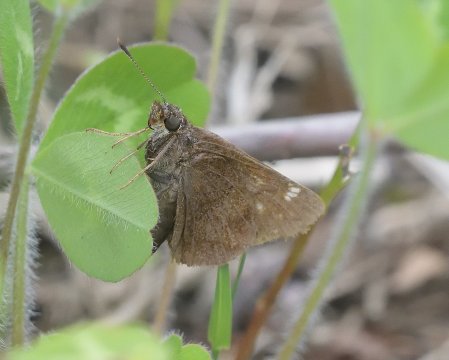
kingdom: Animalia
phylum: Arthropoda
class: Insecta
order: Lepidoptera
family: Hesperiidae
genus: Lon
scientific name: Lon hobomok
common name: Hobomok Skipper
